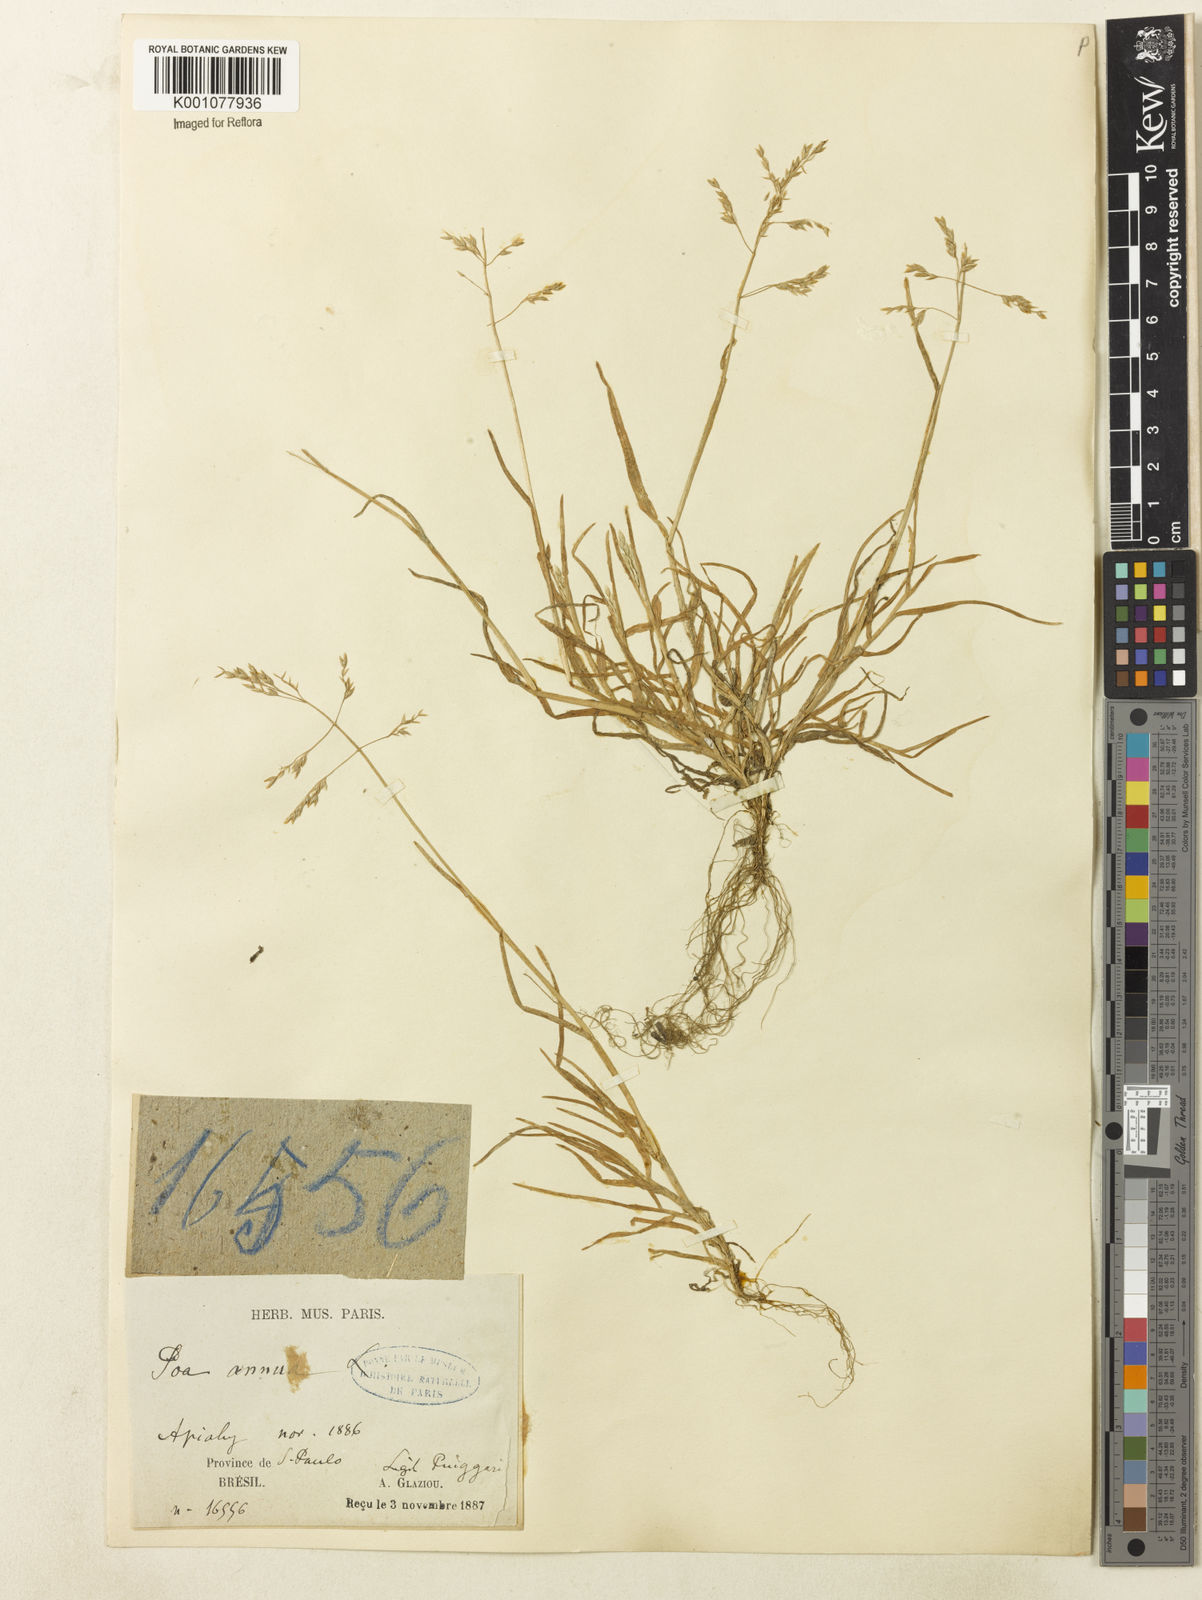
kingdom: Plantae
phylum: Tracheophyta
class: Liliopsida
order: Poales
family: Poaceae
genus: Poa
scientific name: Poa annua
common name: Annual bluegrass
